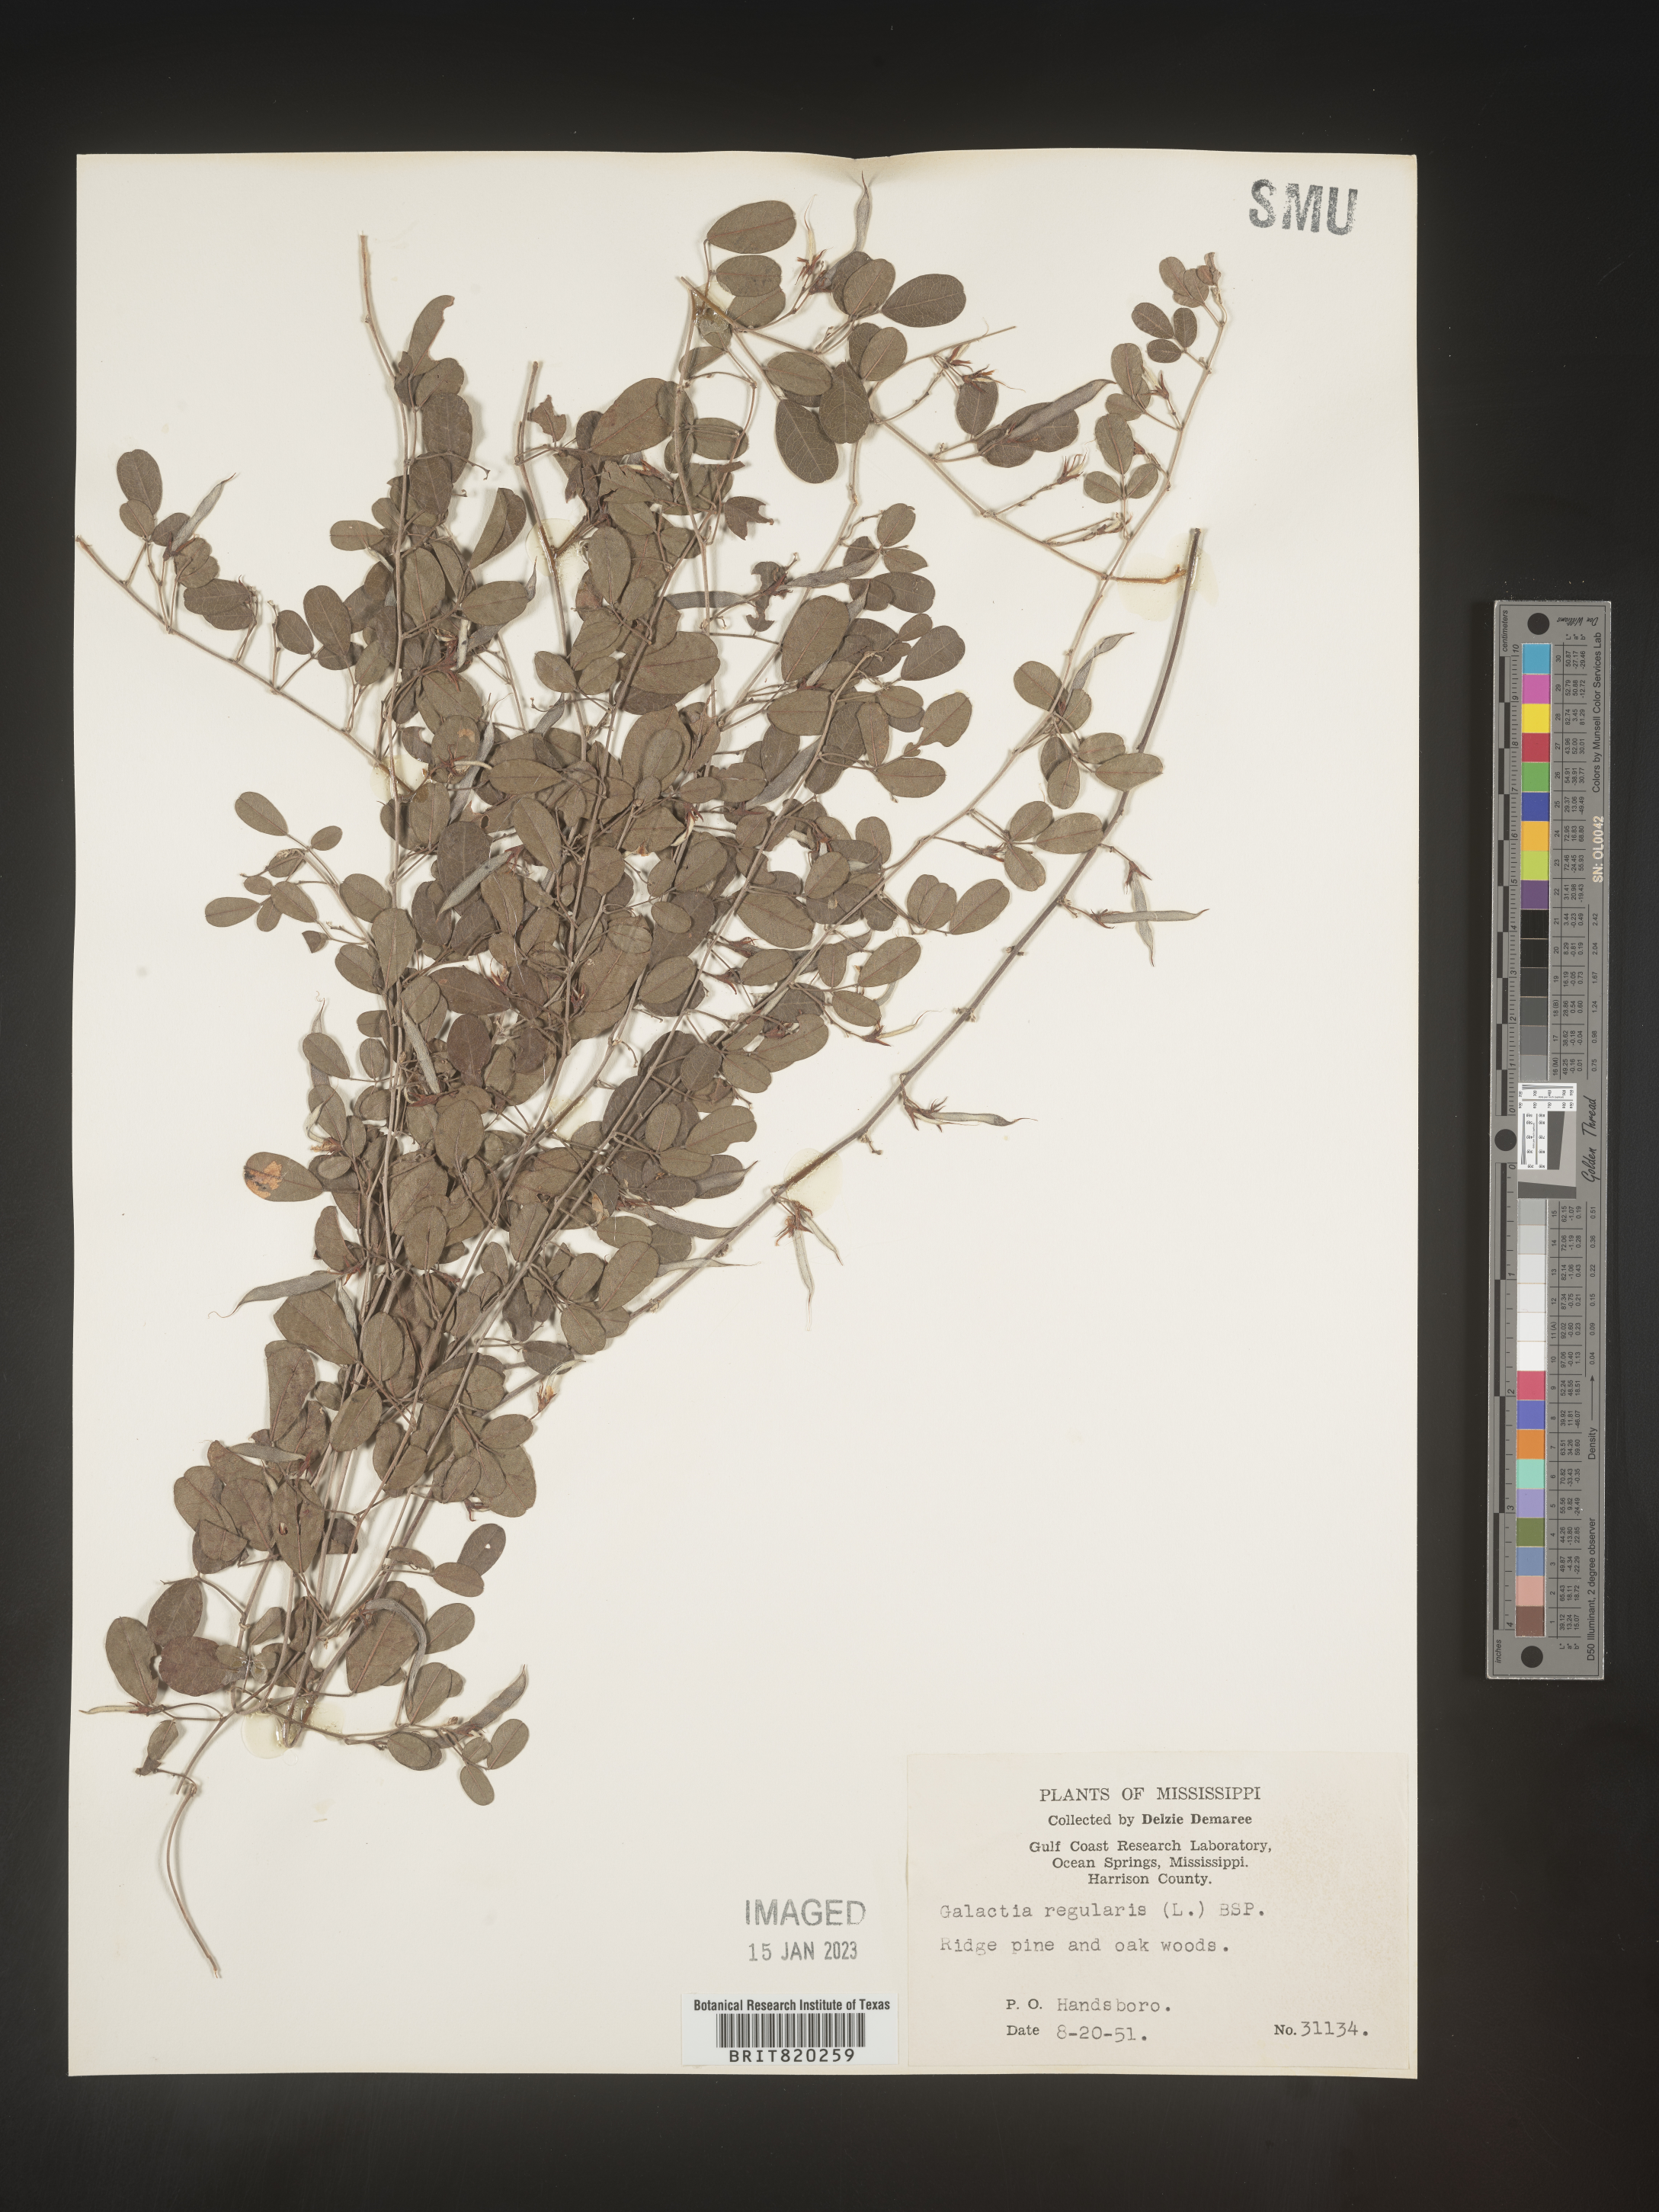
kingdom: Plantae
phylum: Tracheophyta
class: Magnoliopsida
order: Fabales
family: Fabaceae
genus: Galactia
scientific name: Galactia microphylla
